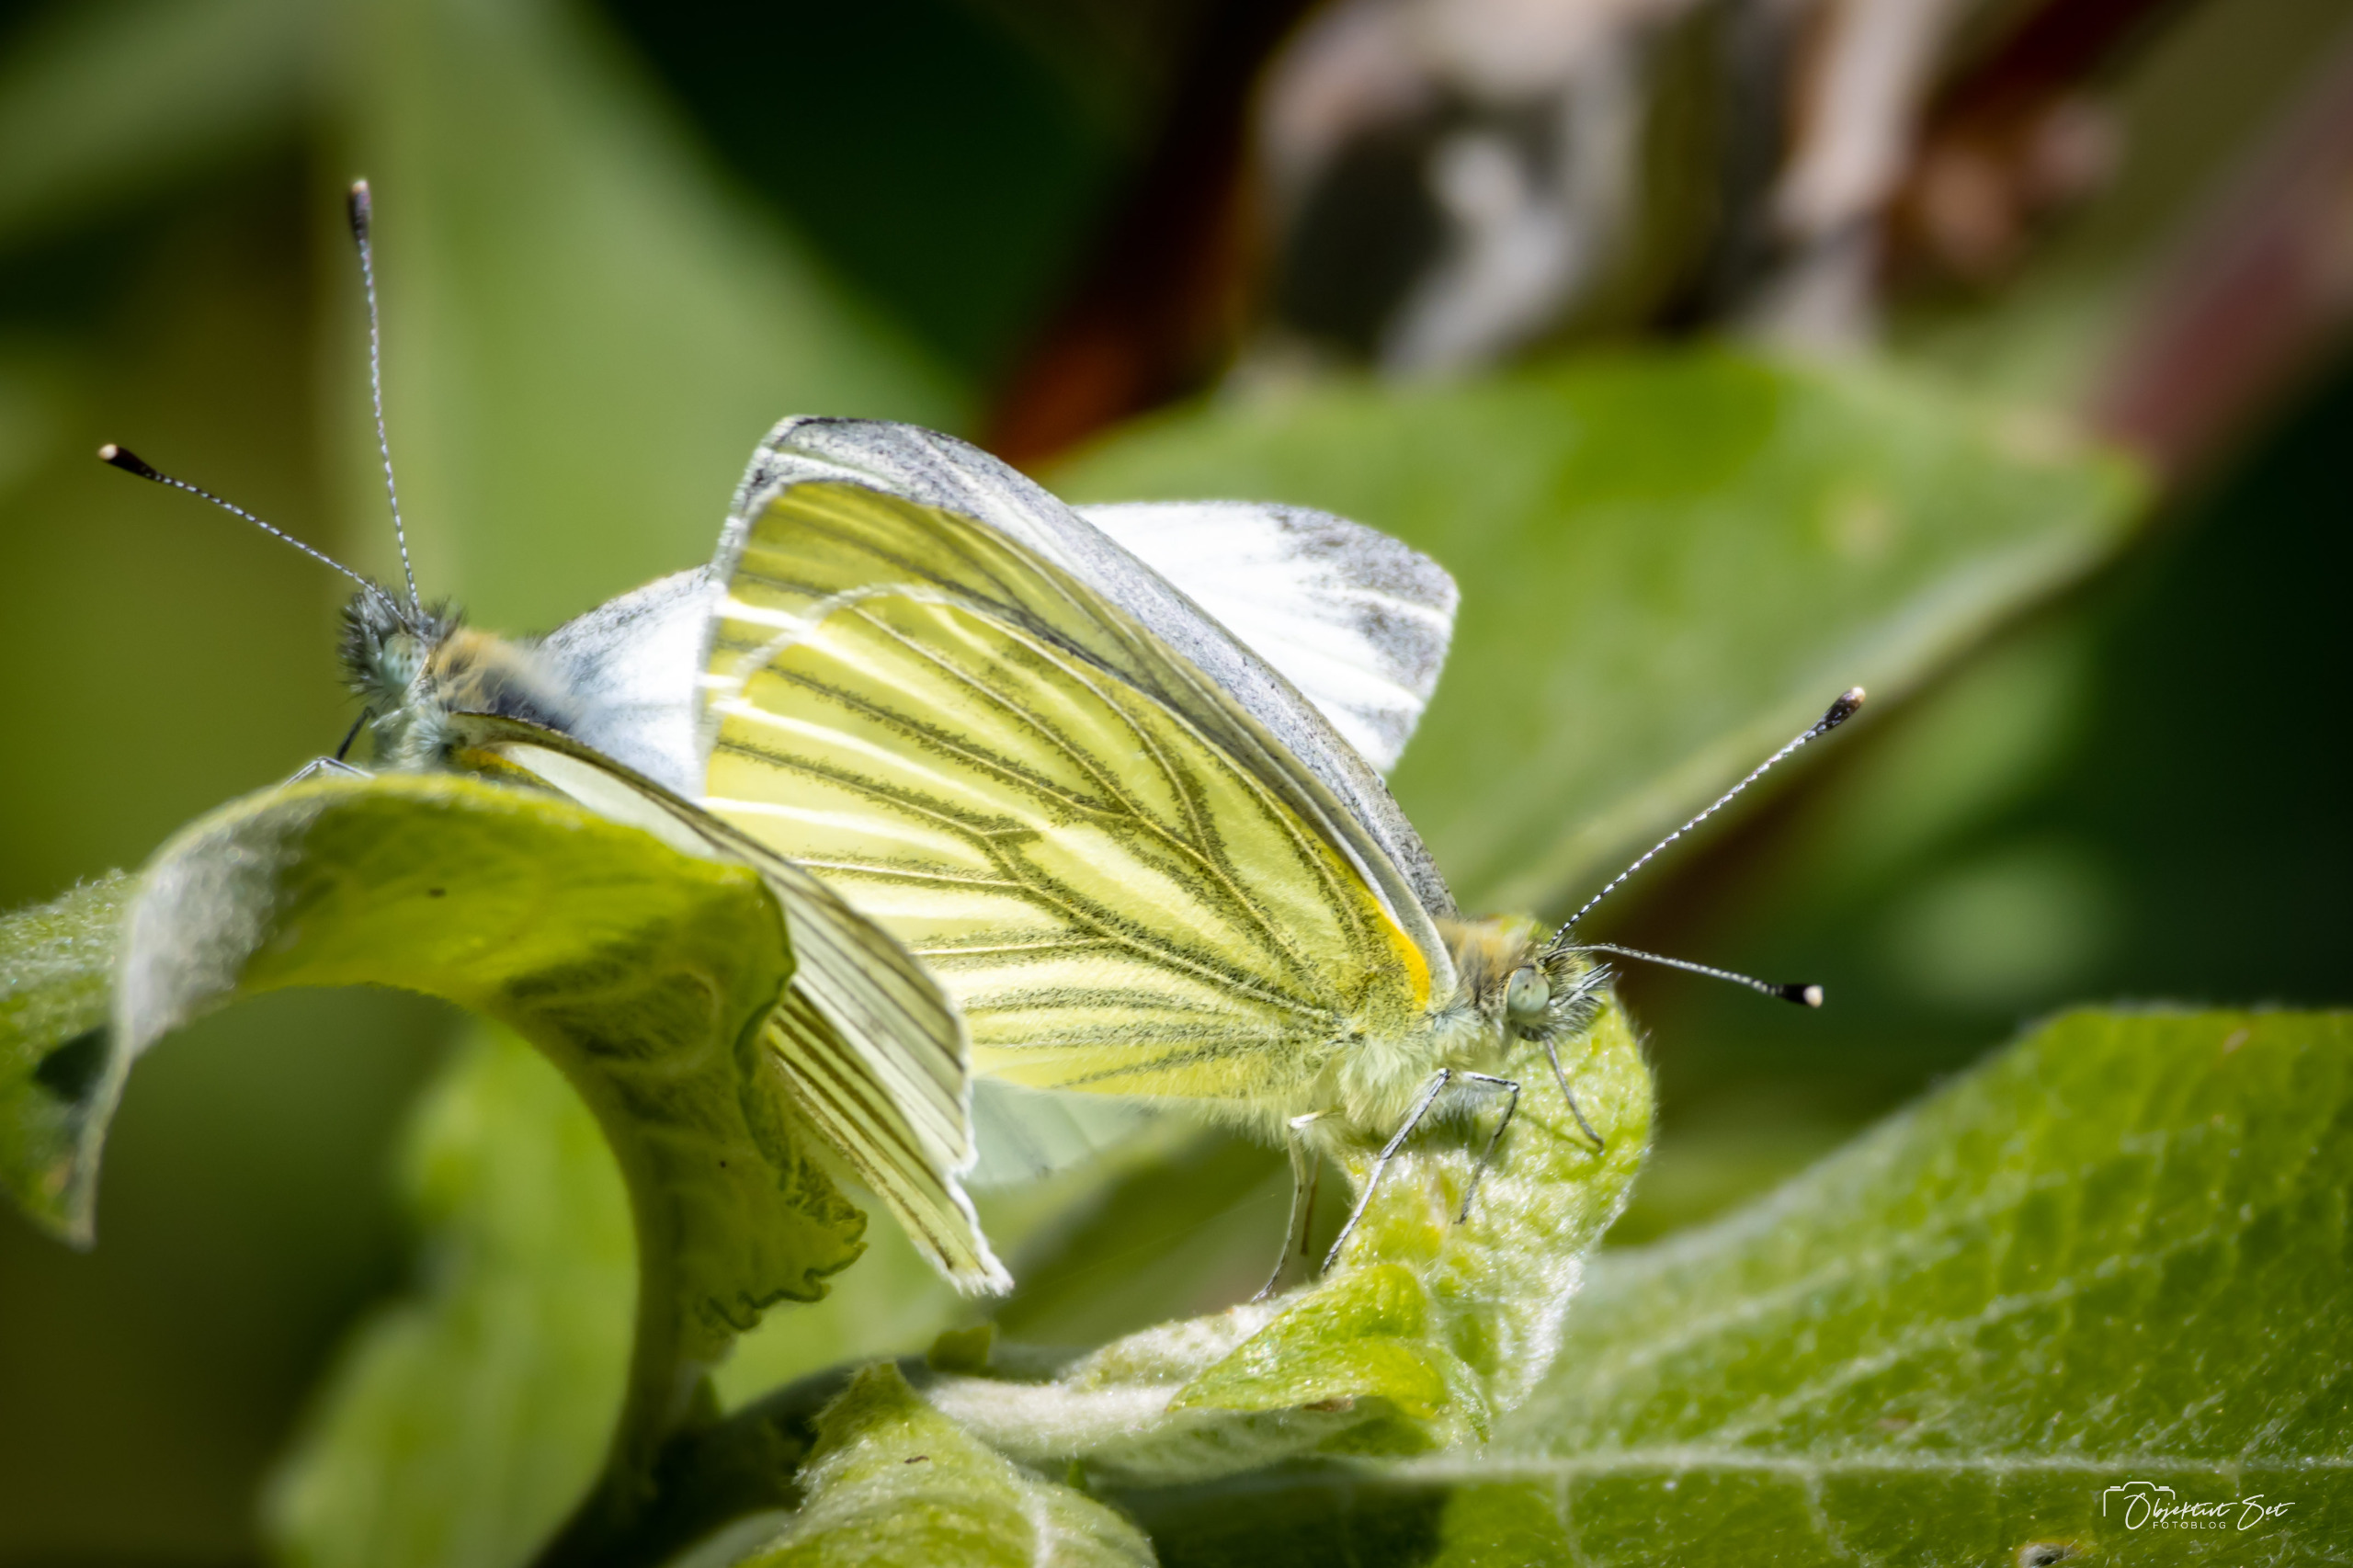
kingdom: Animalia
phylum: Arthropoda
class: Insecta
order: Lepidoptera
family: Pieridae
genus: Pieris
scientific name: Pieris napi
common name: Grønåret kålsommerfugl
